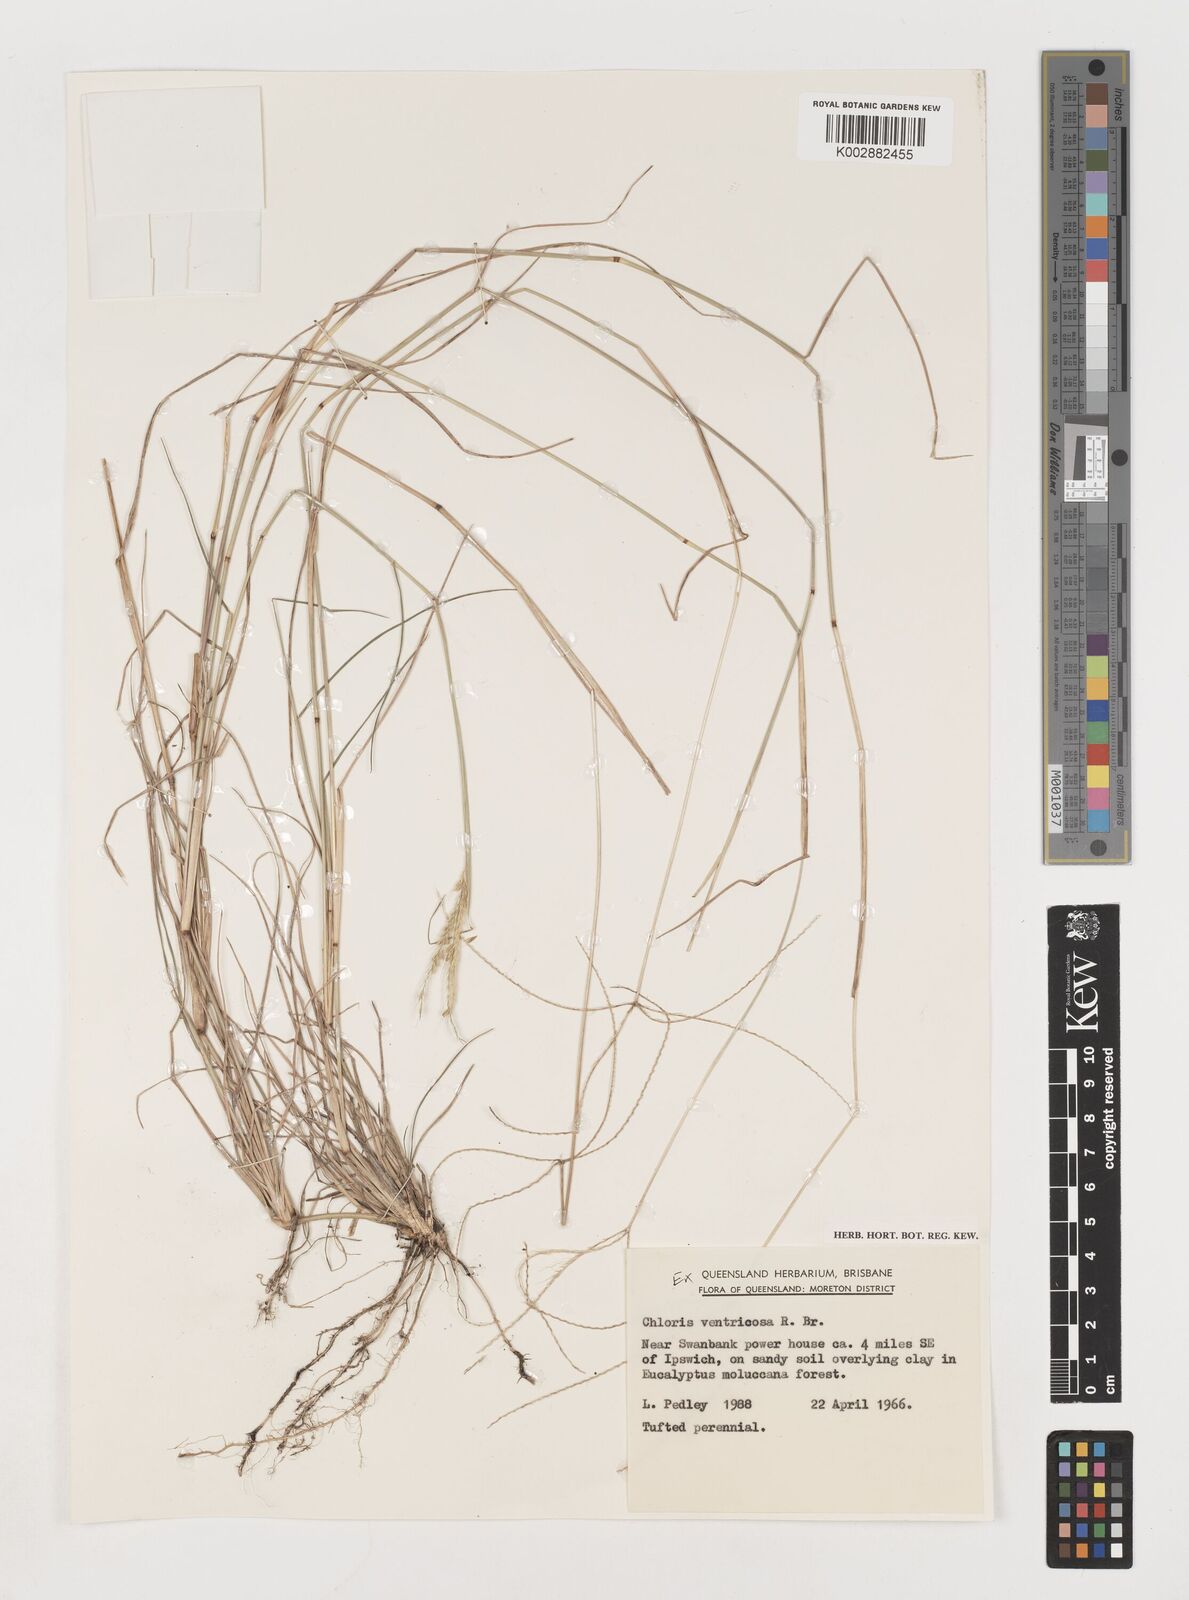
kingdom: Plantae
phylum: Tracheophyta
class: Liliopsida
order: Poales
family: Poaceae
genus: Chloris
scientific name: Chloris ventricosa
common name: Australian windmill grass
